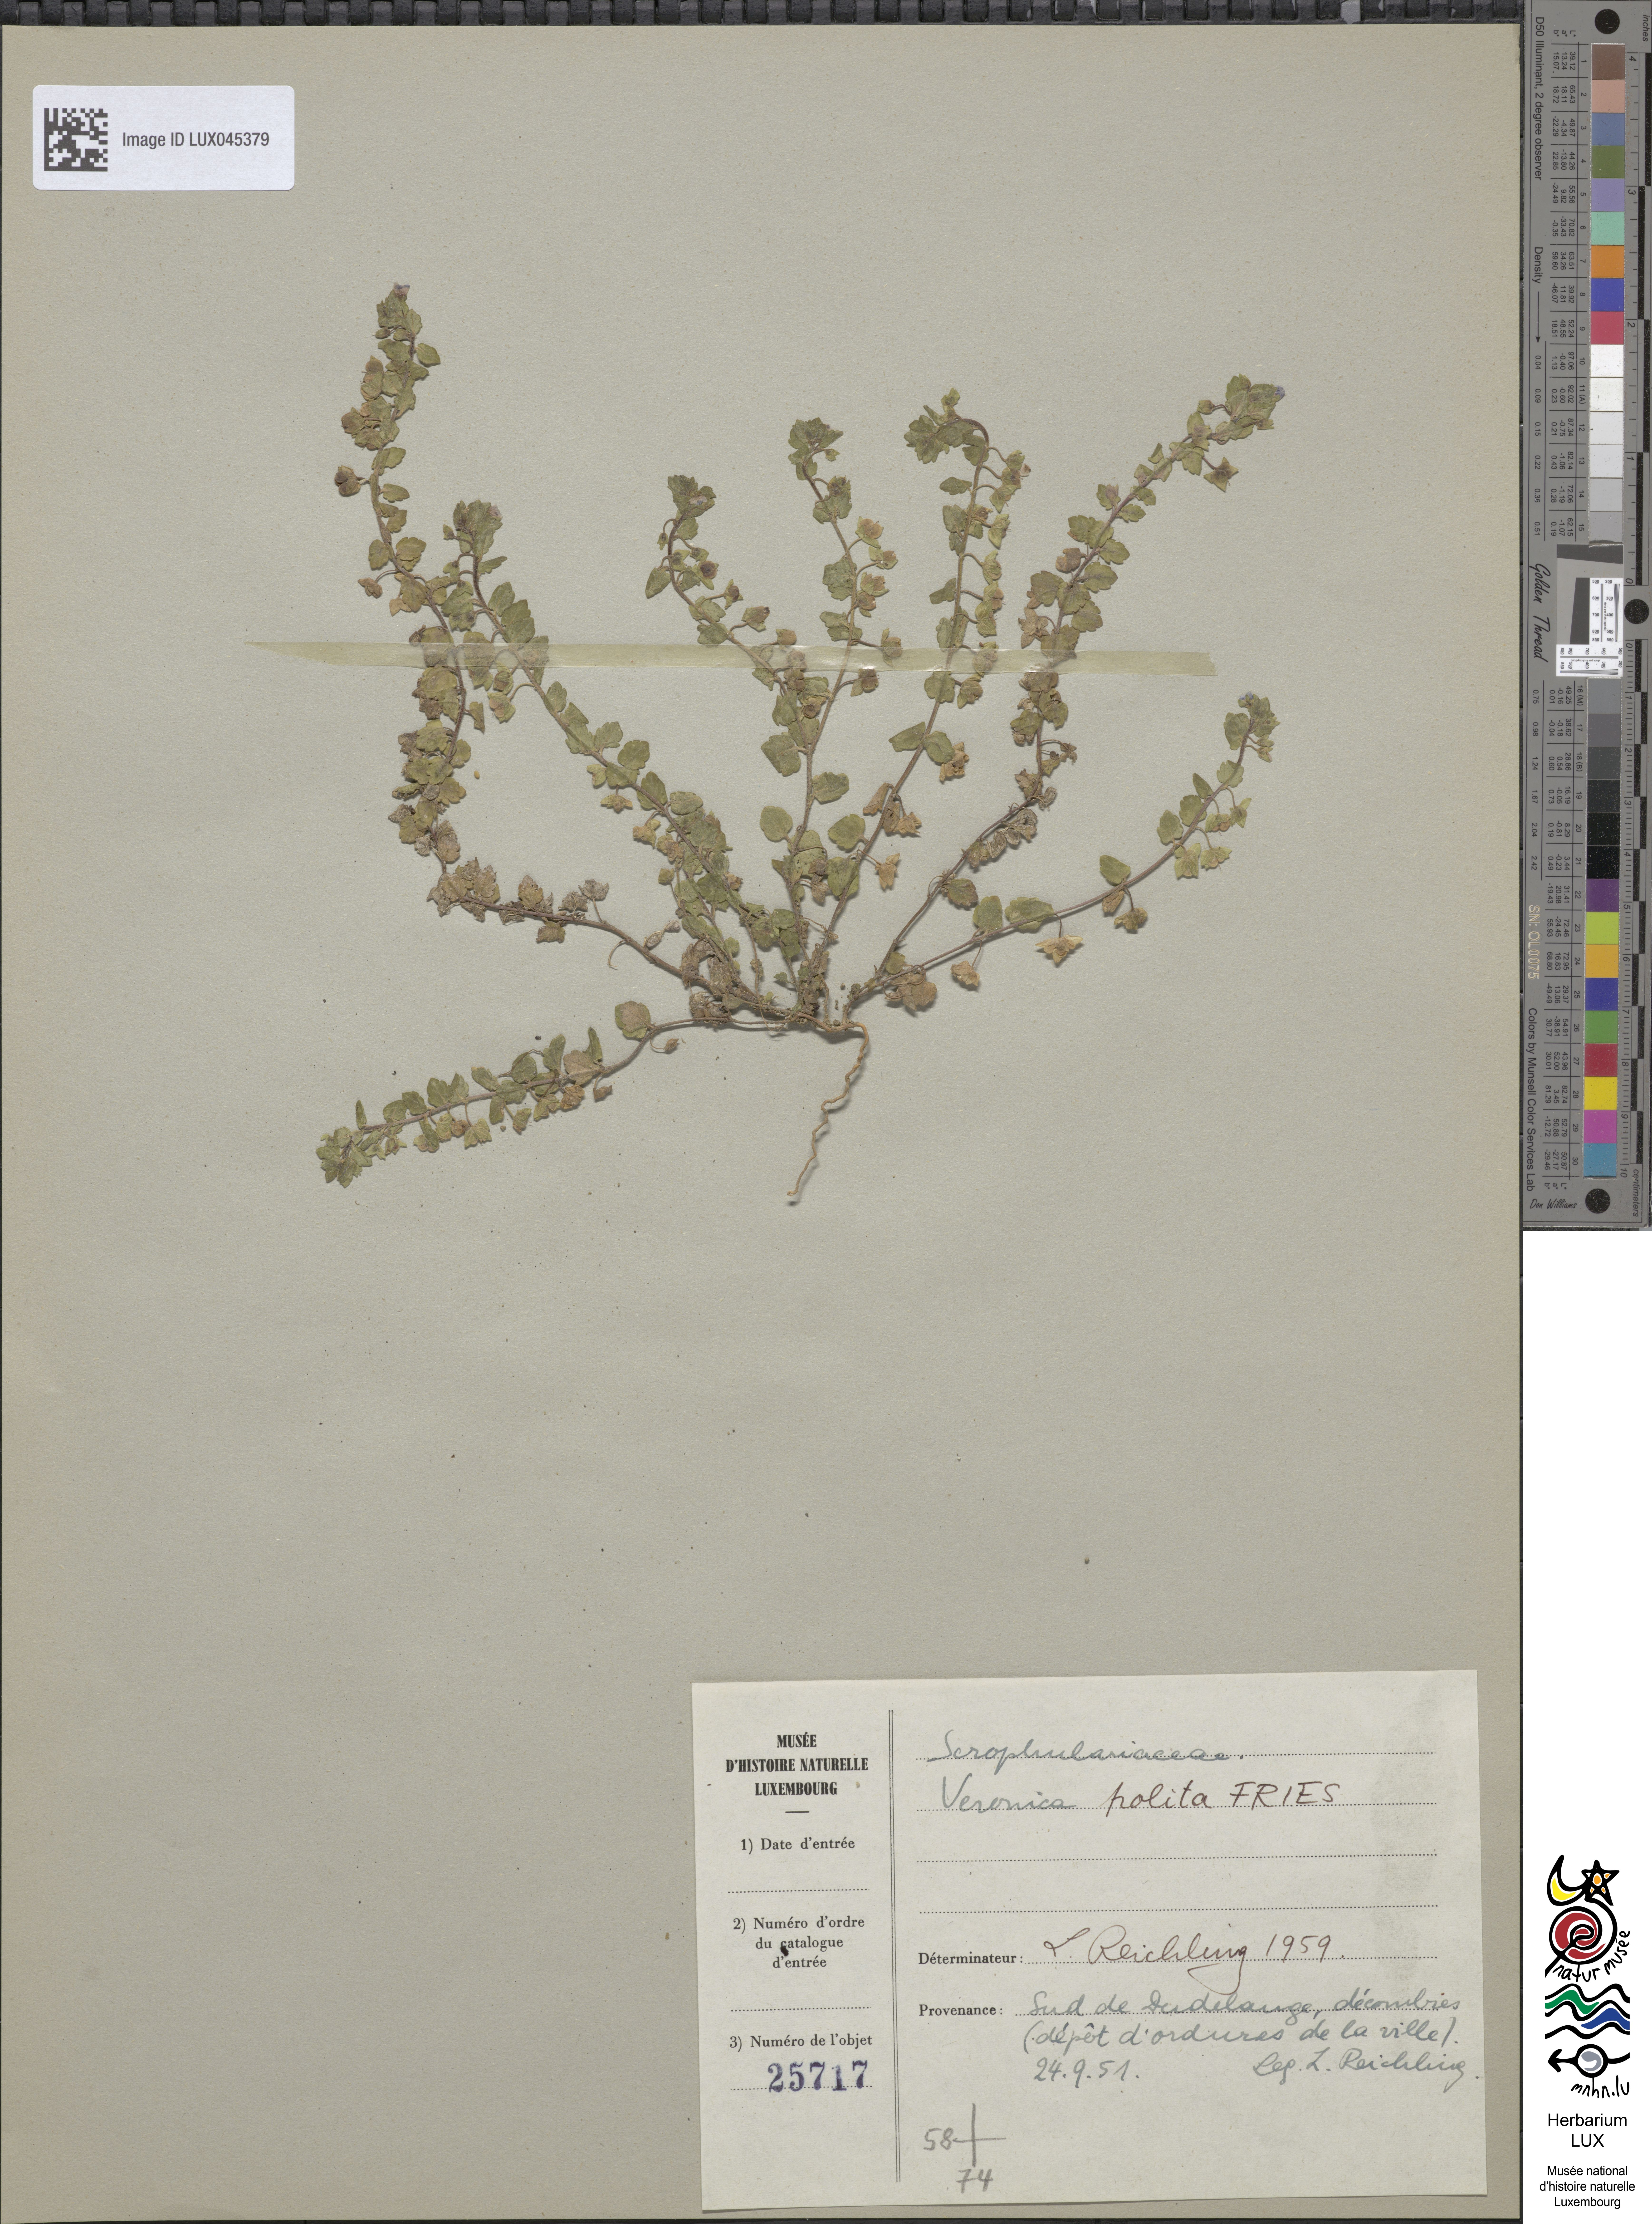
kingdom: Plantae
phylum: Tracheophyta
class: Magnoliopsida
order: Lamiales
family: Plantaginaceae
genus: Veronica
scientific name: Veronica polita
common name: Grey field-speedwell
